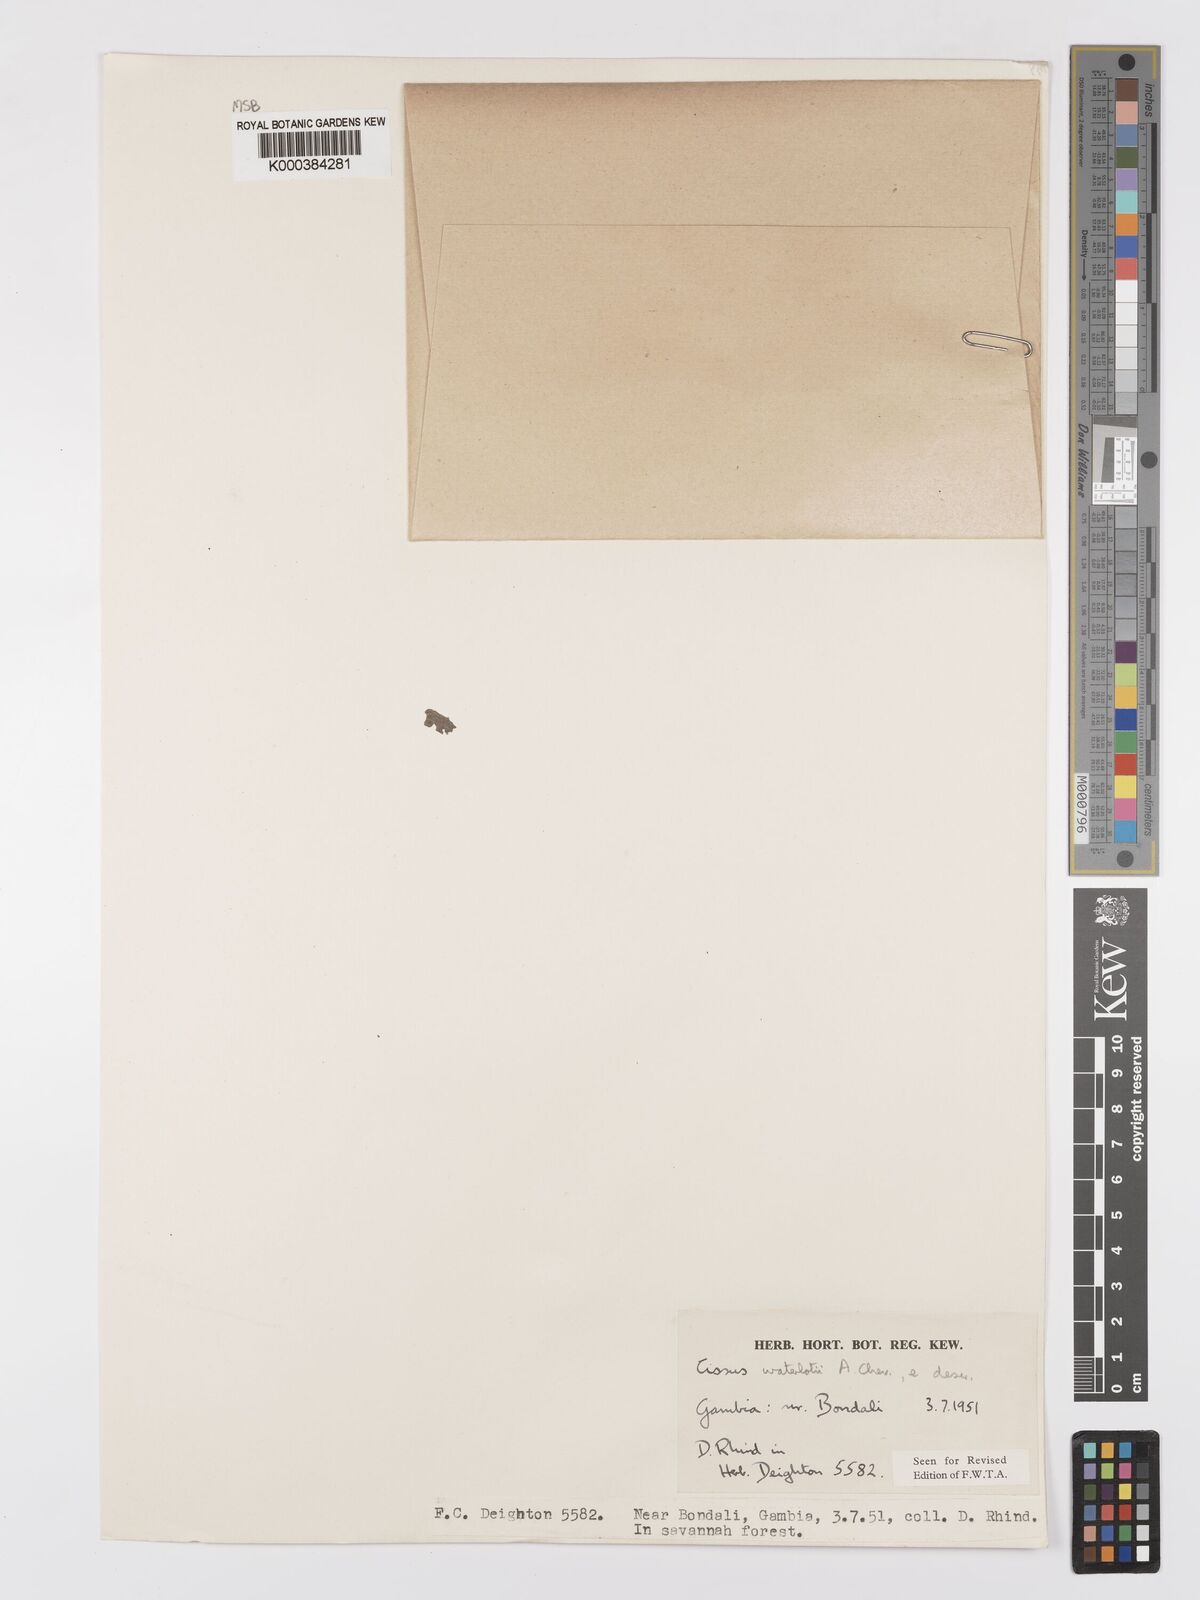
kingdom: Plantae
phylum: Tracheophyta
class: Magnoliopsida
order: Vitales
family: Vitaceae
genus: Cyphostemma
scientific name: Cyphostemma waterlotii
